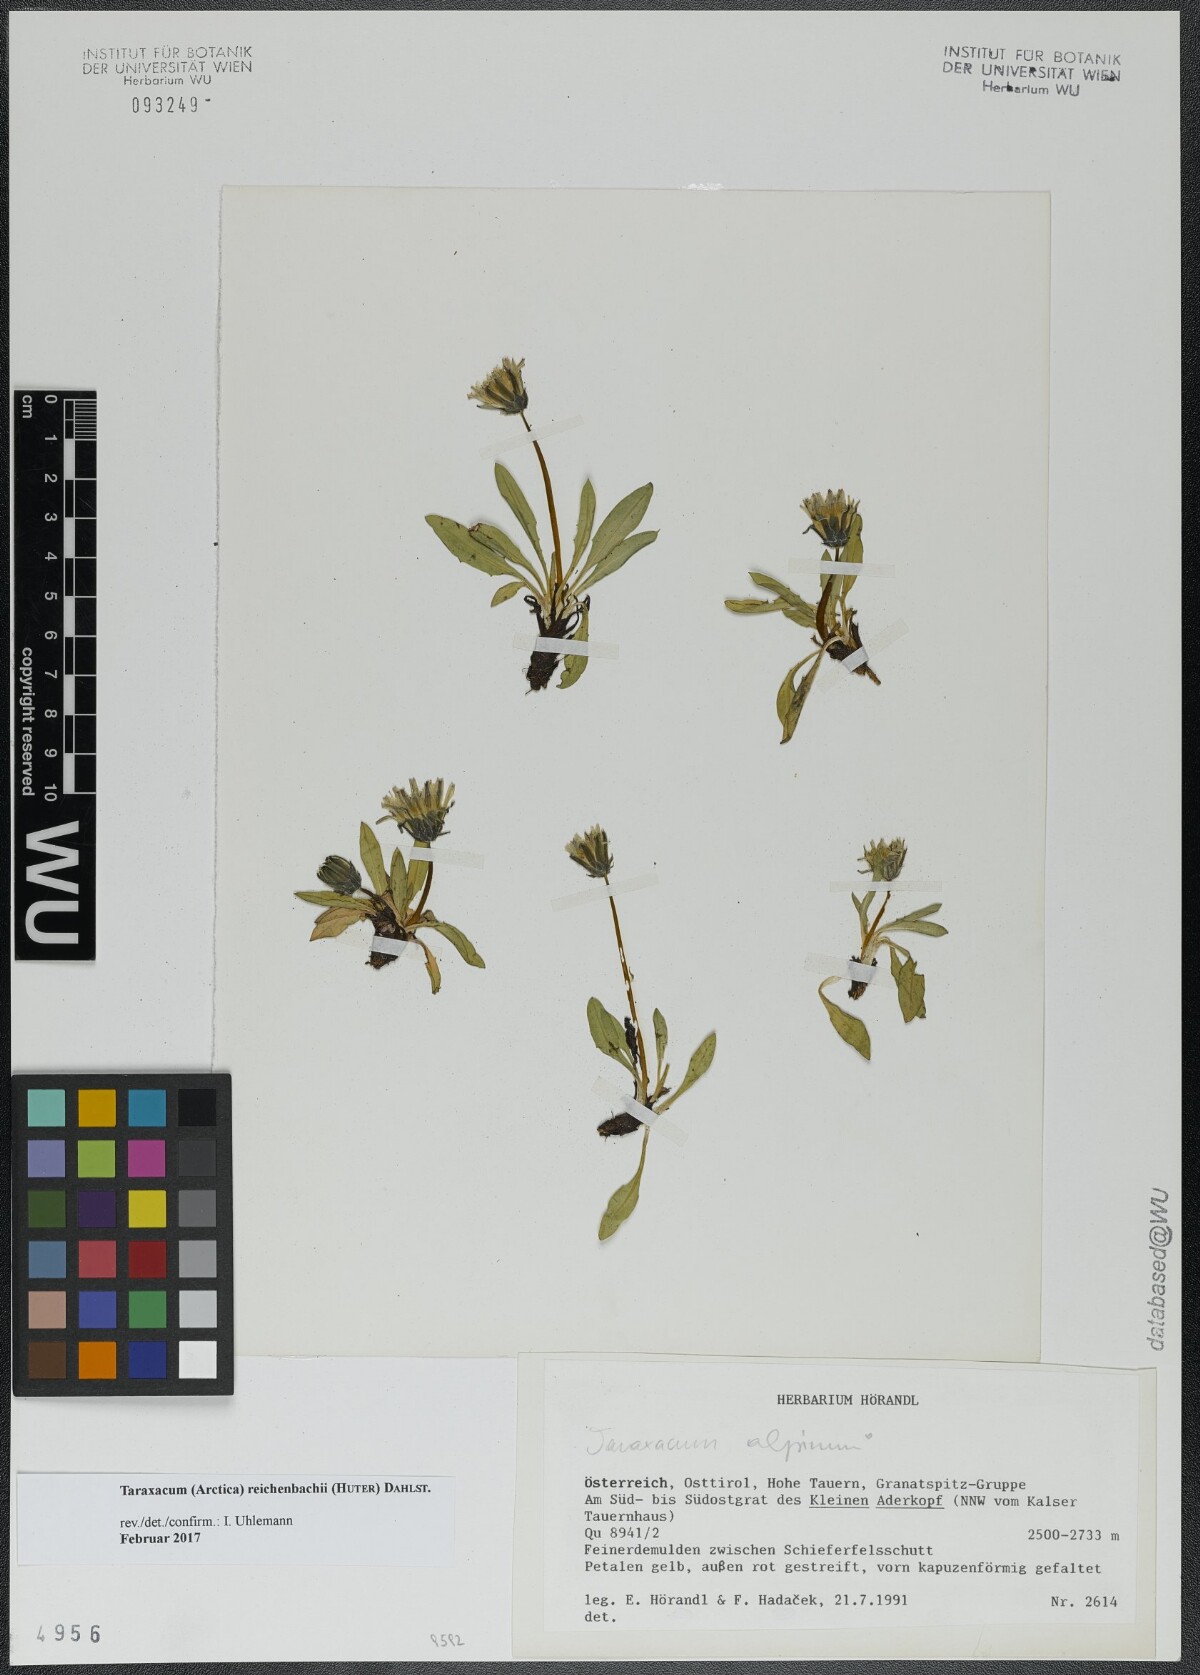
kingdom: Plantae
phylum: Tracheophyta
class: Magnoliopsida
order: Asterales
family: Asteraceae
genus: Taraxacum
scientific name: Taraxacum reichenbachii
